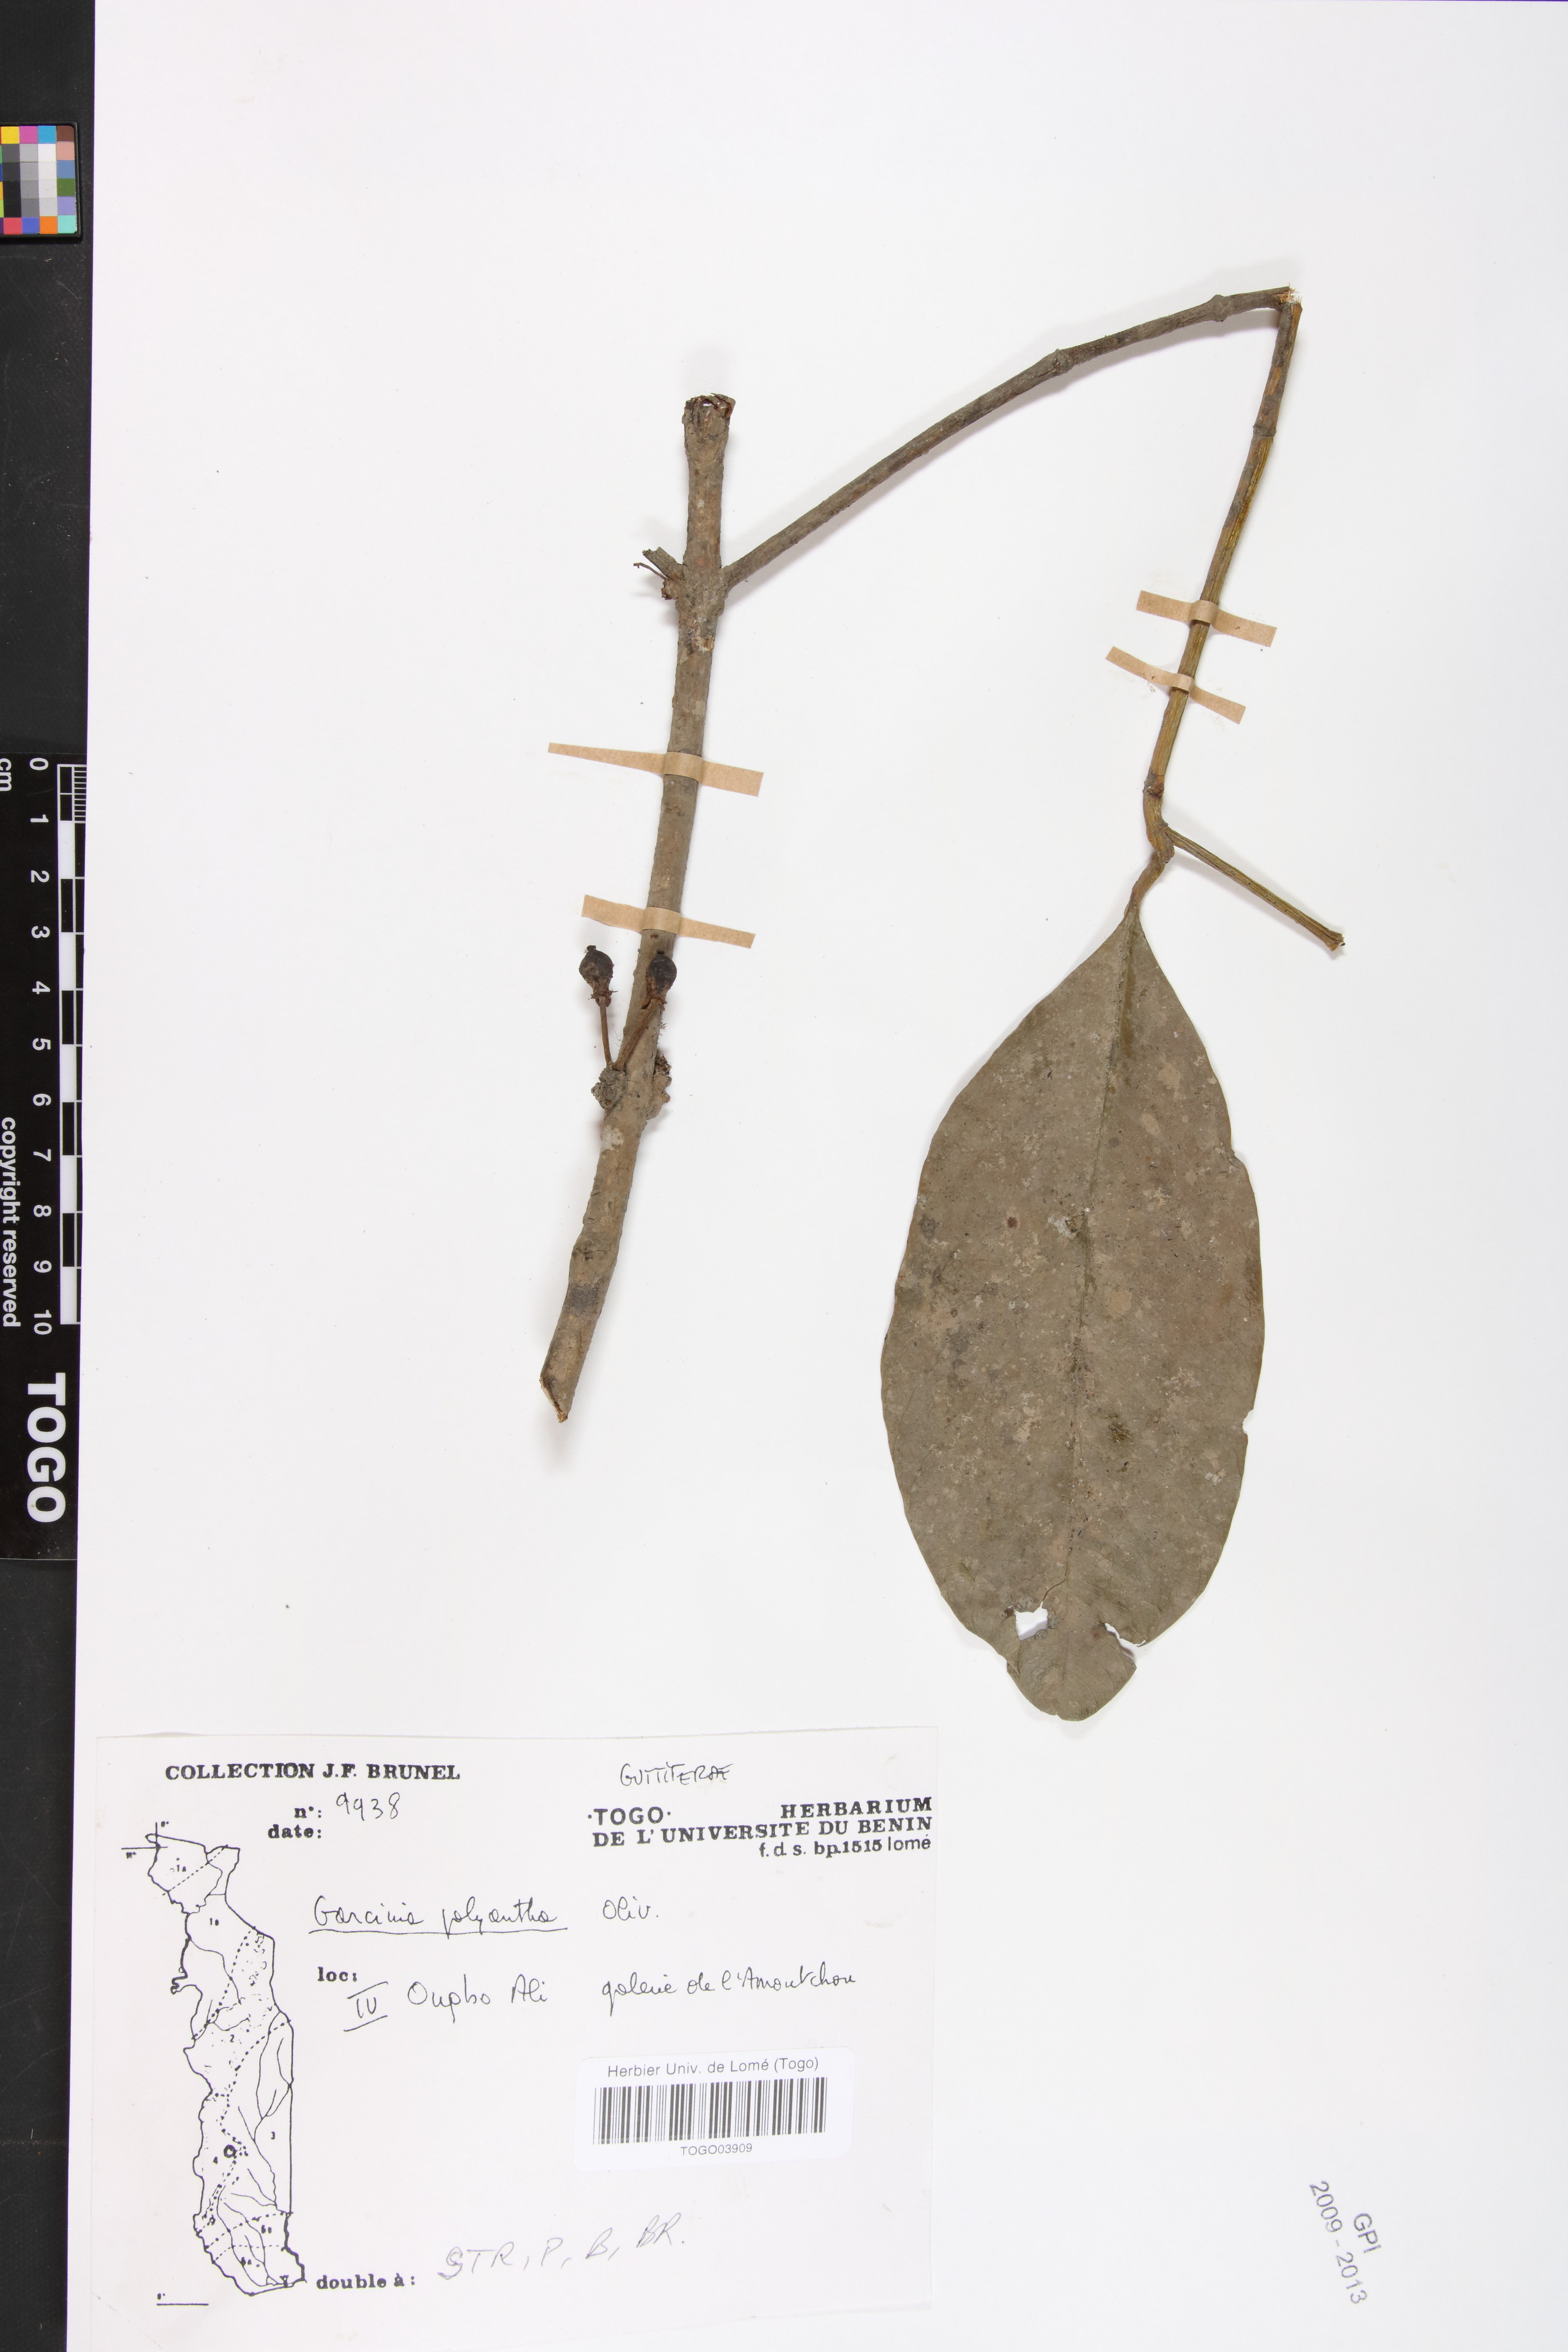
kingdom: Plantae
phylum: Tracheophyta
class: Magnoliopsida
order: Malpighiales
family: Clusiaceae
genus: Garcinia
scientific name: Garcinia smeathmannii
